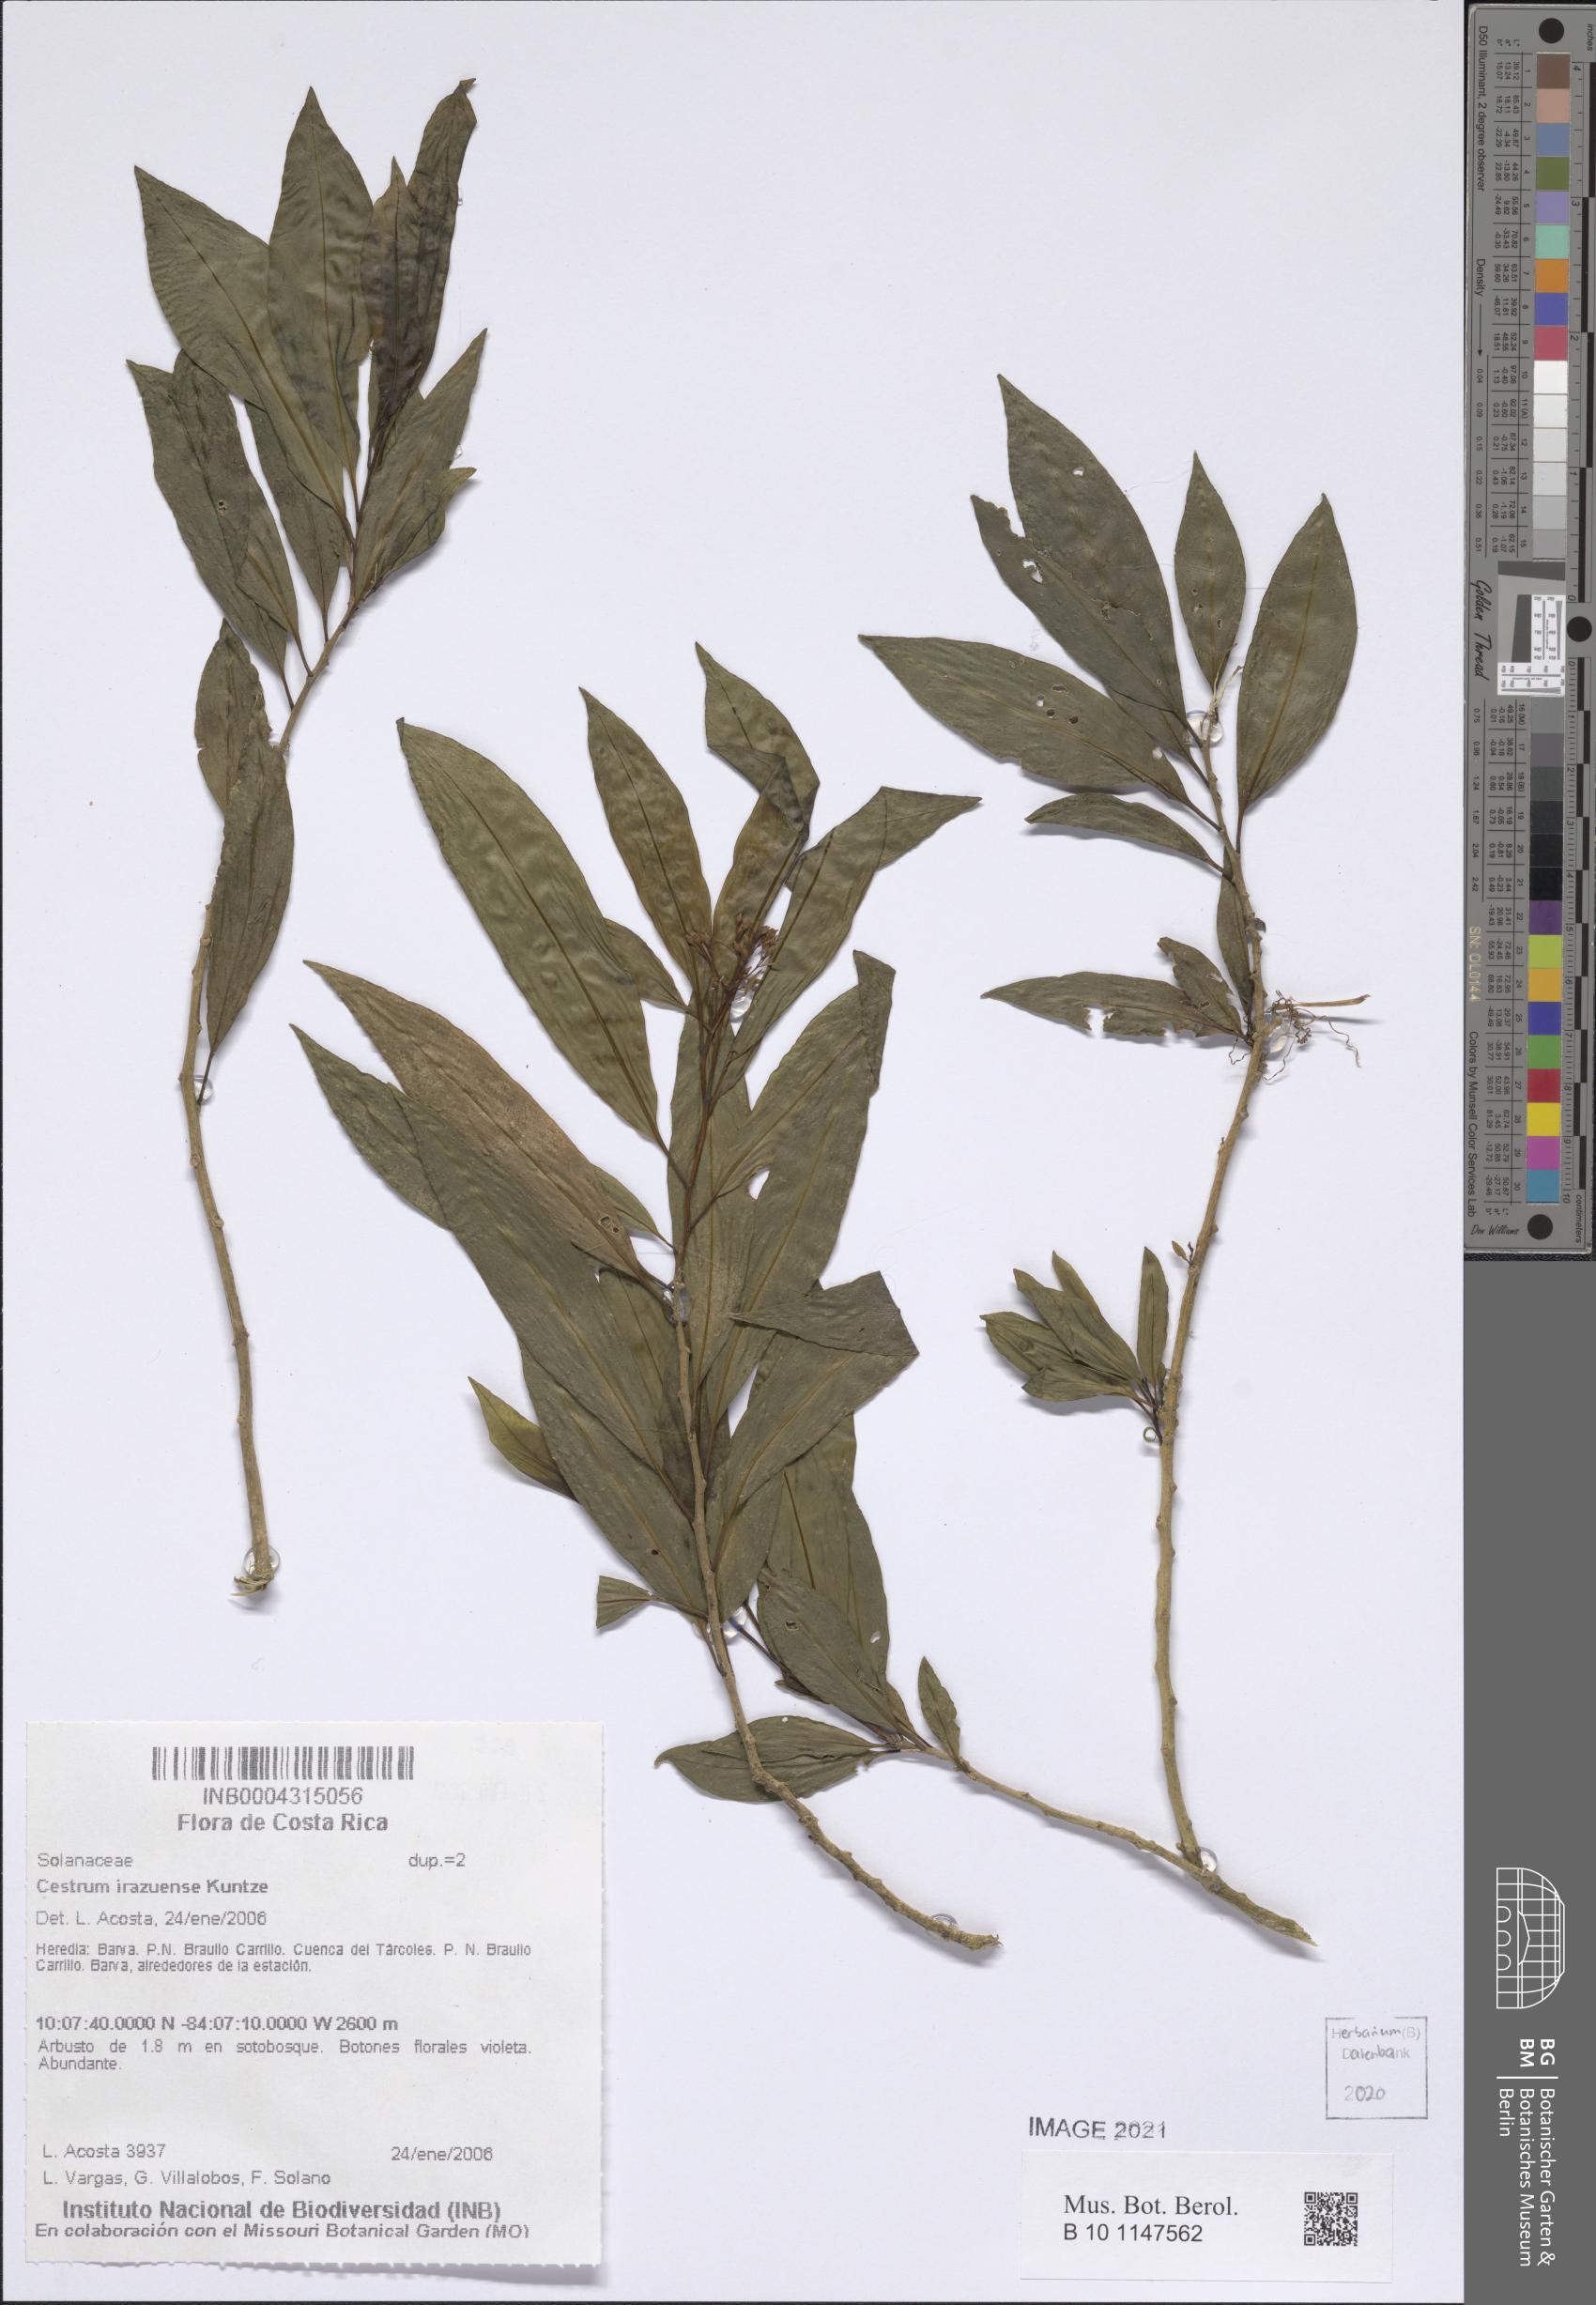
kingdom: Plantae
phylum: Tracheophyta
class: Magnoliopsida
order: Solanales
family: Solanaceae
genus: Cestrum
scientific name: Cestrum irazuense
